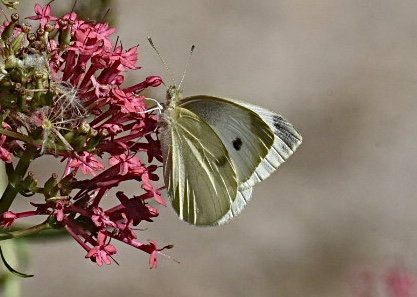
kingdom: Animalia
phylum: Arthropoda
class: Insecta
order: Lepidoptera
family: Pieridae
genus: Pieris
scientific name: Pieris rapae
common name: Cabbage White
